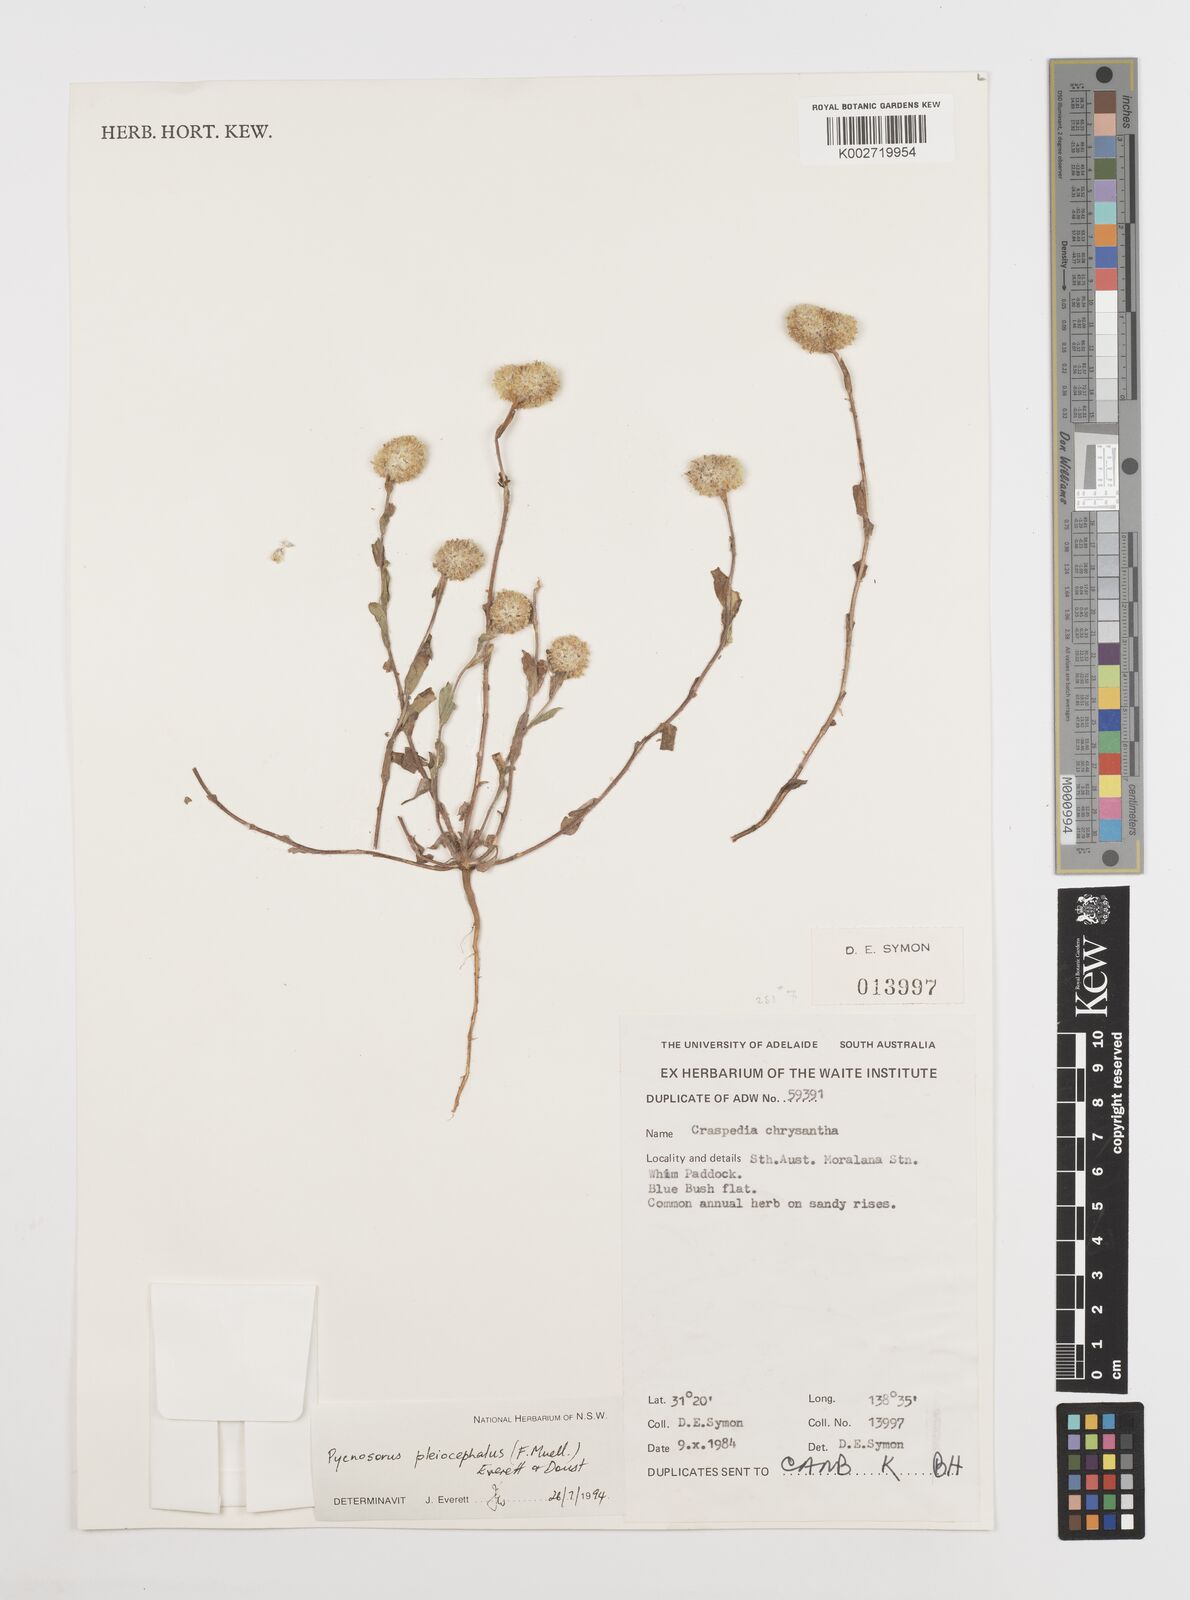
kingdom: Plantae
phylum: Tracheophyta
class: Magnoliopsida
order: Asterales
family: Asteraceae
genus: Pycnosorus
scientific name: Pycnosorus pleiocephalus
